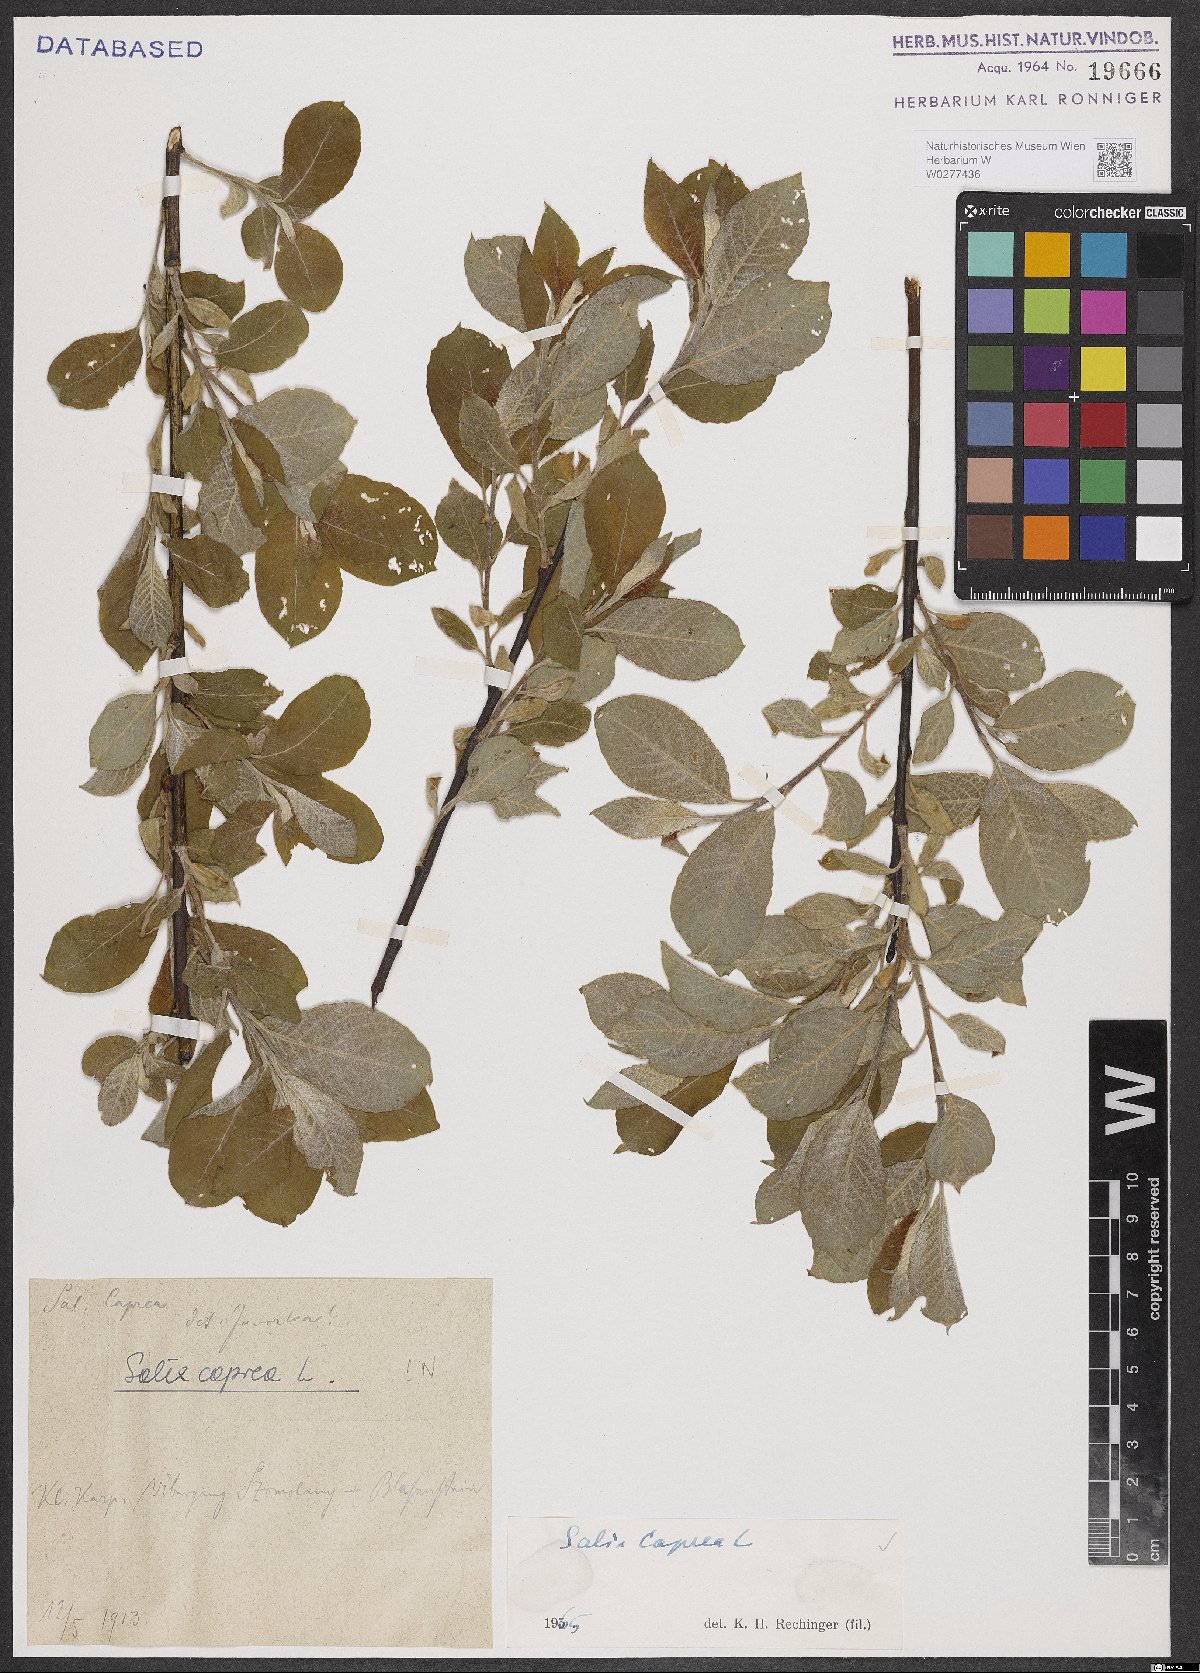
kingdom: Plantae
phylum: Tracheophyta
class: Magnoliopsida
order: Malpighiales
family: Salicaceae
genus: Salix
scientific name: Salix caprea
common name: Goat willow
